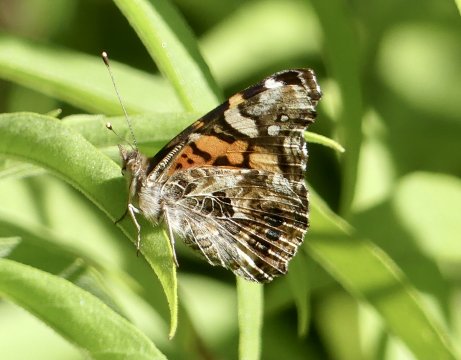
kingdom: Animalia
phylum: Arthropoda
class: Insecta
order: Lepidoptera
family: Nymphalidae
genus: Vanessa
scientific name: Vanessa annabella
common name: West Coast Lady
